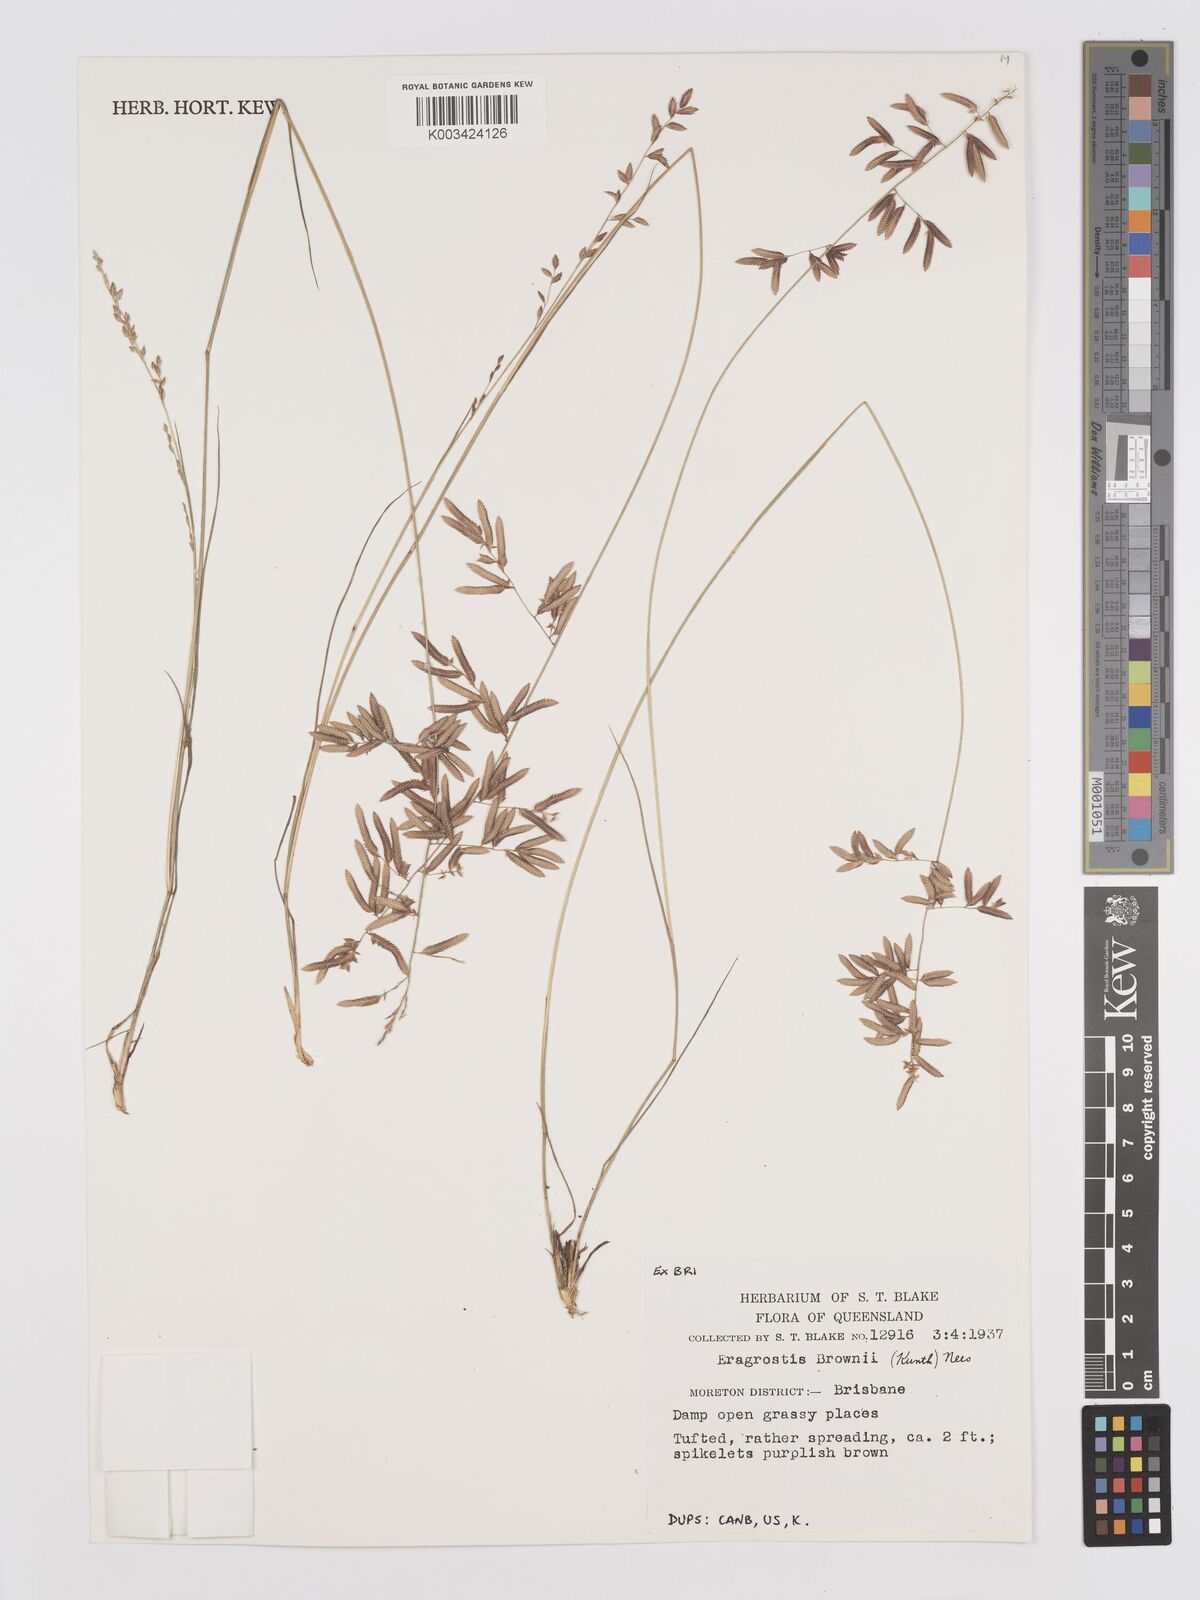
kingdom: Plantae
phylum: Tracheophyta
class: Liliopsida
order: Poales
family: Poaceae
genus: Eragrostis
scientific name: Eragrostis brownii
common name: Lovegrass
